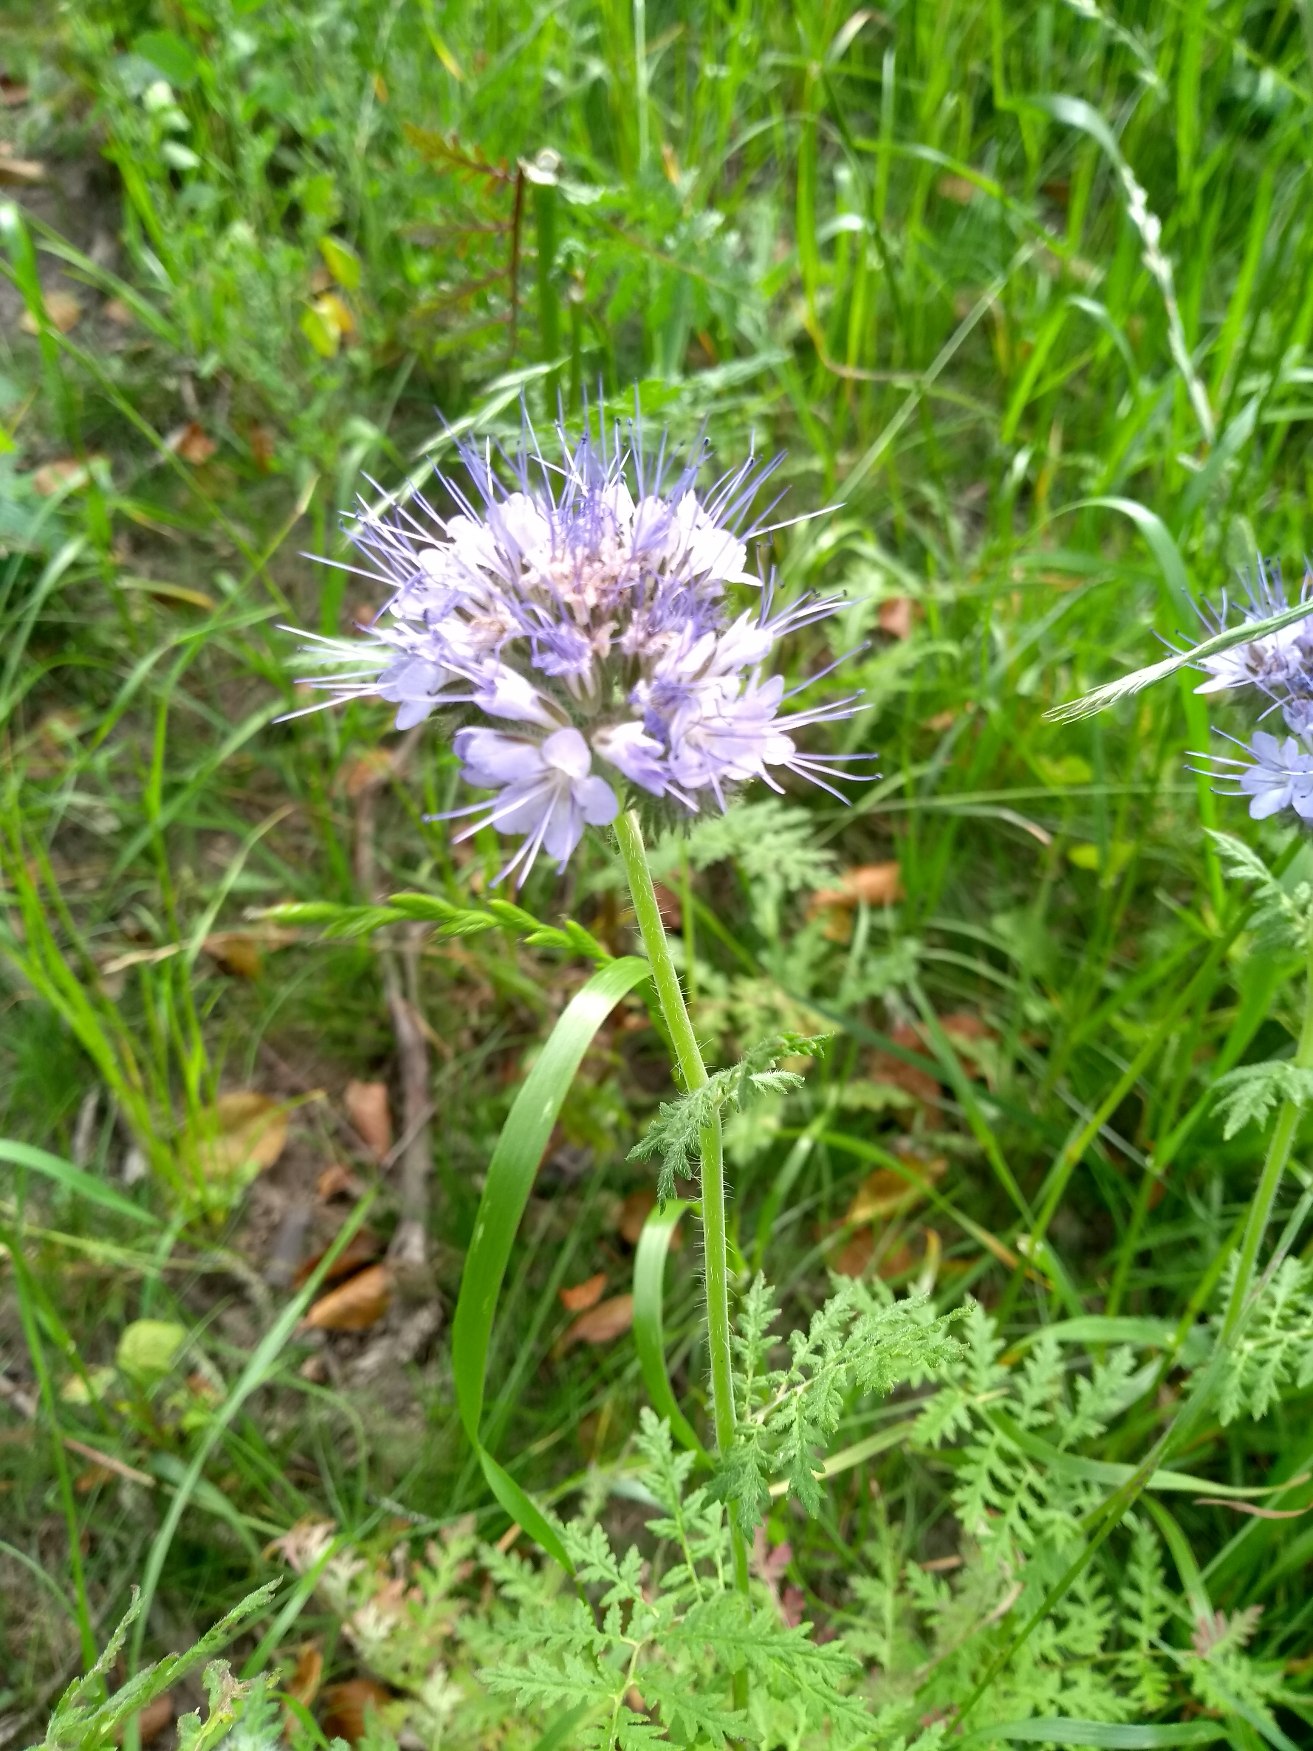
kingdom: Plantae
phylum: Tracheophyta
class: Magnoliopsida
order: Boraginales
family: Hydrophyllaceae
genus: Phacelia
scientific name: Phacelia tanacetifolia
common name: Honningurt
